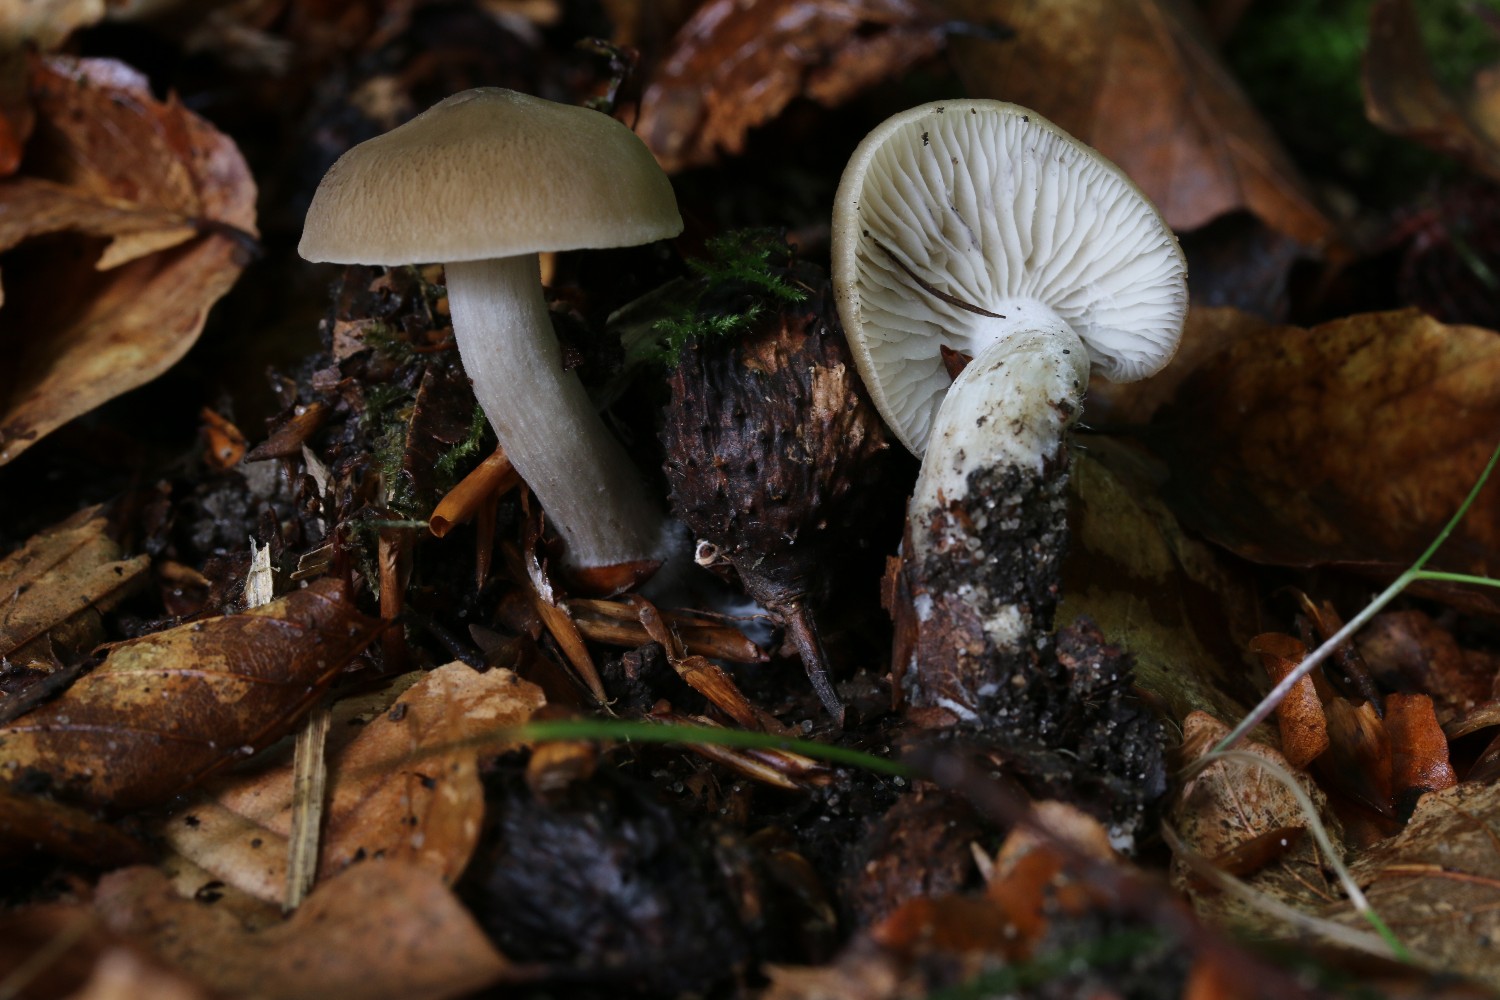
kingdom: Fungi
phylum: Basidiomycota
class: Agaricomycetes
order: Agaricales
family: Lyophyllaceae
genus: Lyophyllum
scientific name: Lyophyllum paelochroum
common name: blånende gråblad
